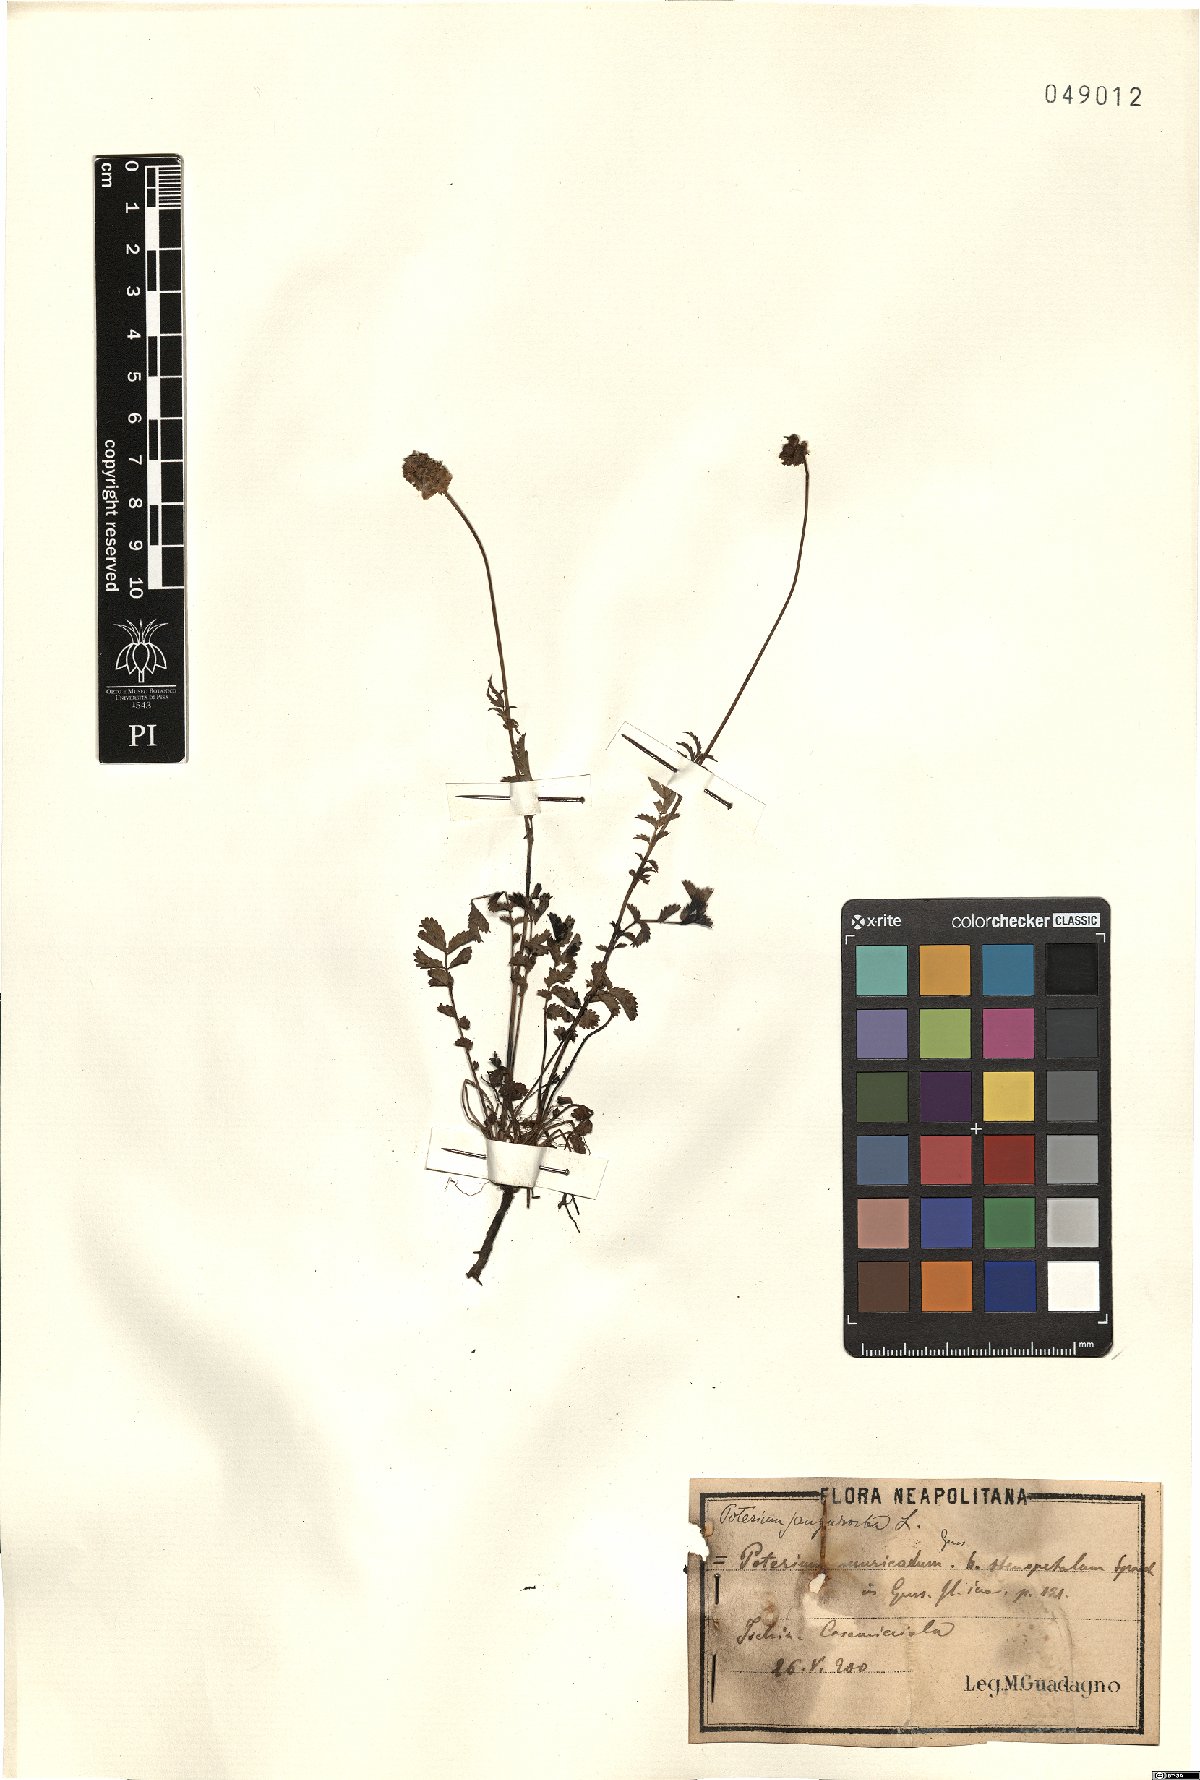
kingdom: Plantae
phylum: Tracheophyta
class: Magnoliopsida
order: Rosales
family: Rosaceae
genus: Poterium
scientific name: Poterium sanguisorba
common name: Salad burnet
